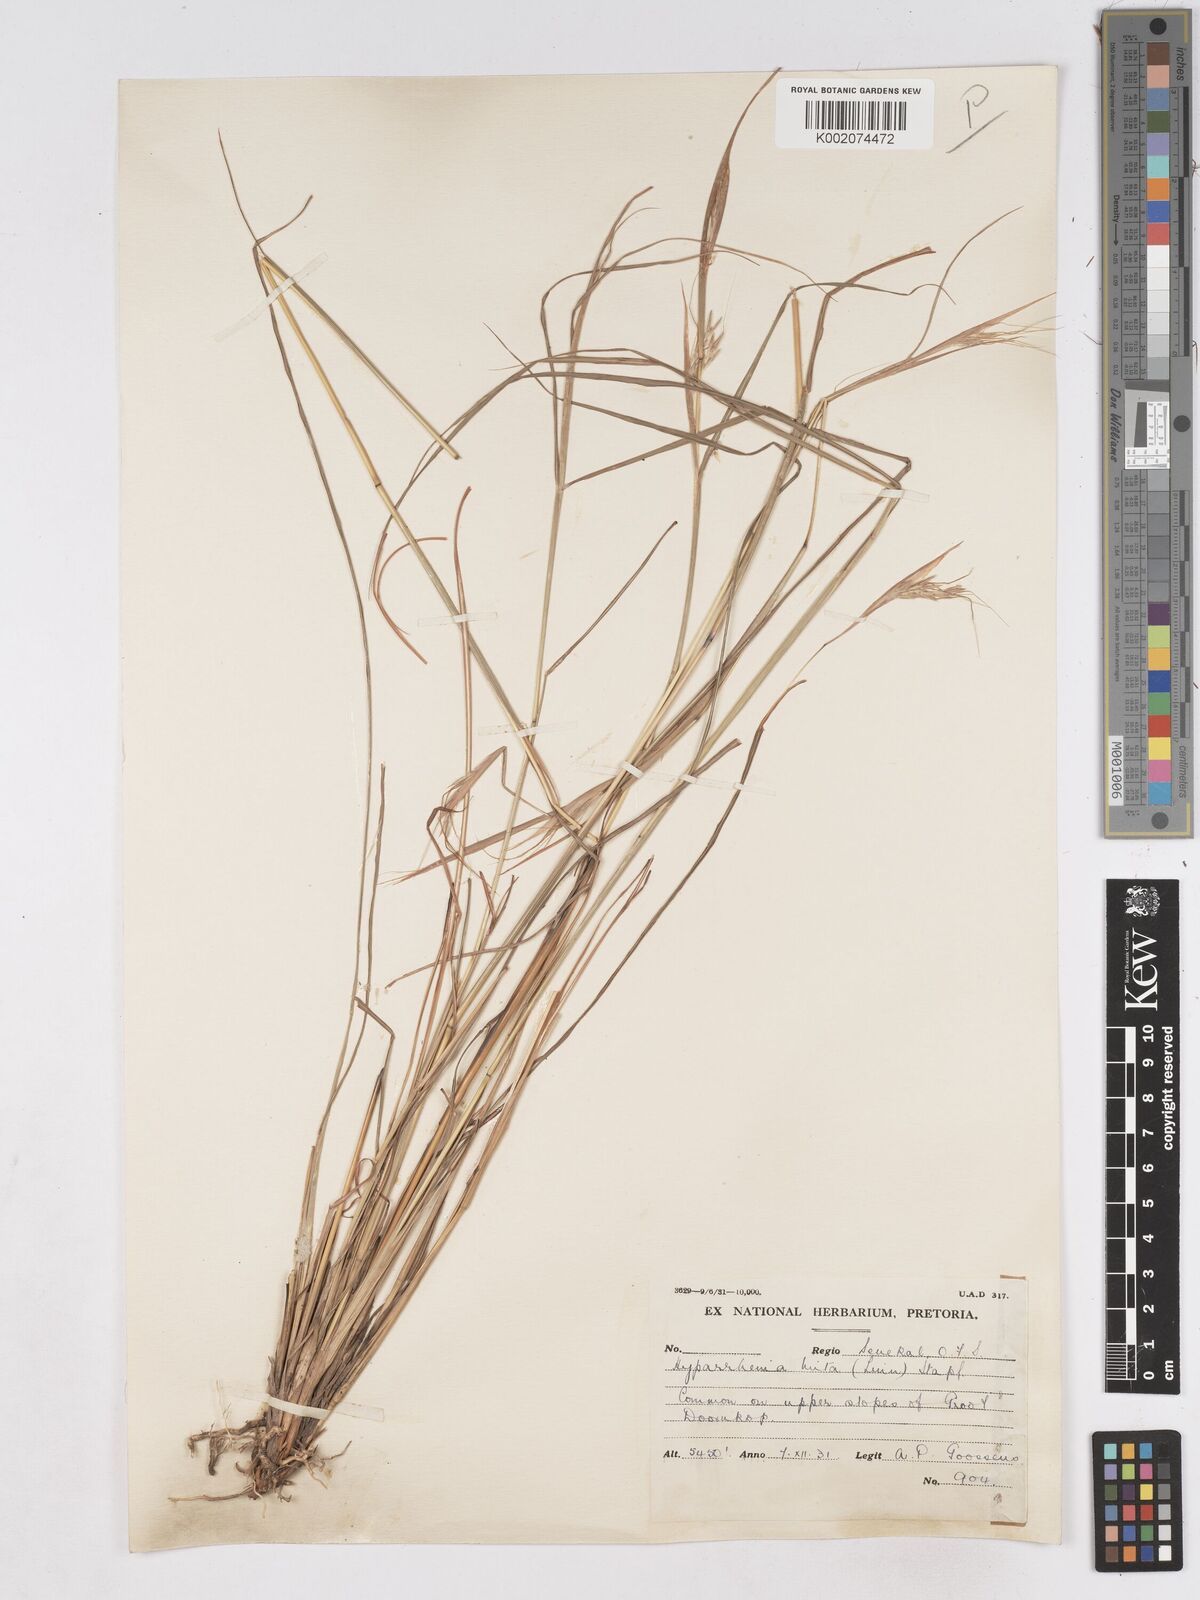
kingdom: Plantae
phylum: Tracheophyta
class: Liliopsida
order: Poales
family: Poaceae
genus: Hyparrhenia
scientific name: Hyparrhenia hirta
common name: Thatching grass
